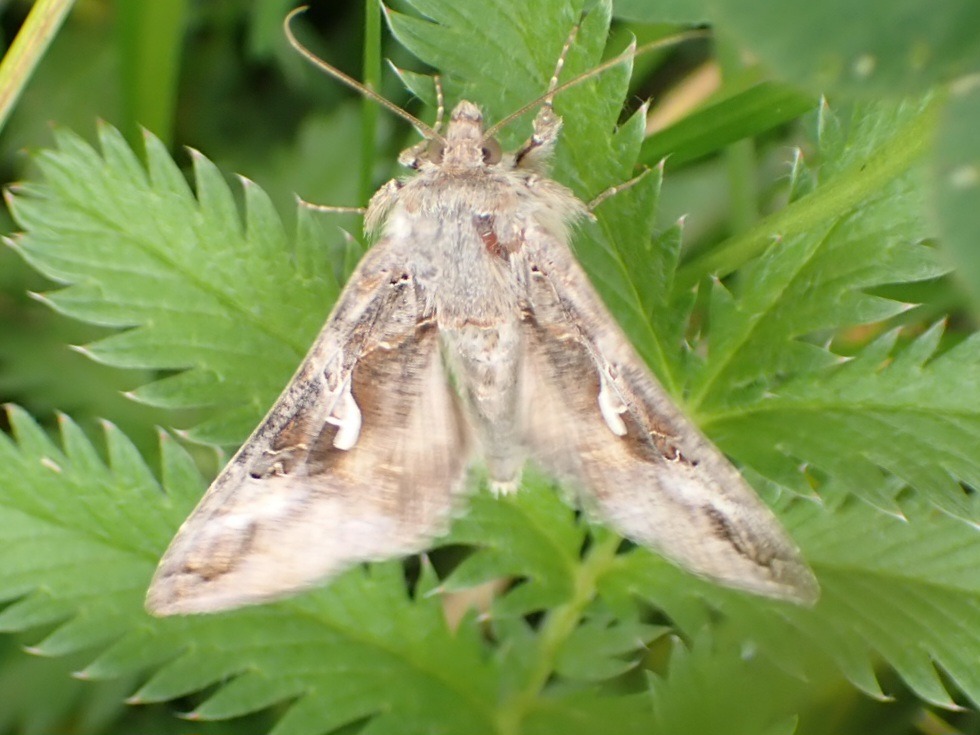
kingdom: Animalia
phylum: Arthropoda
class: Insecta
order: Lepidoptera
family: Noctuidae
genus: Autographa
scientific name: Autographa gamma
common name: Gammaugle
